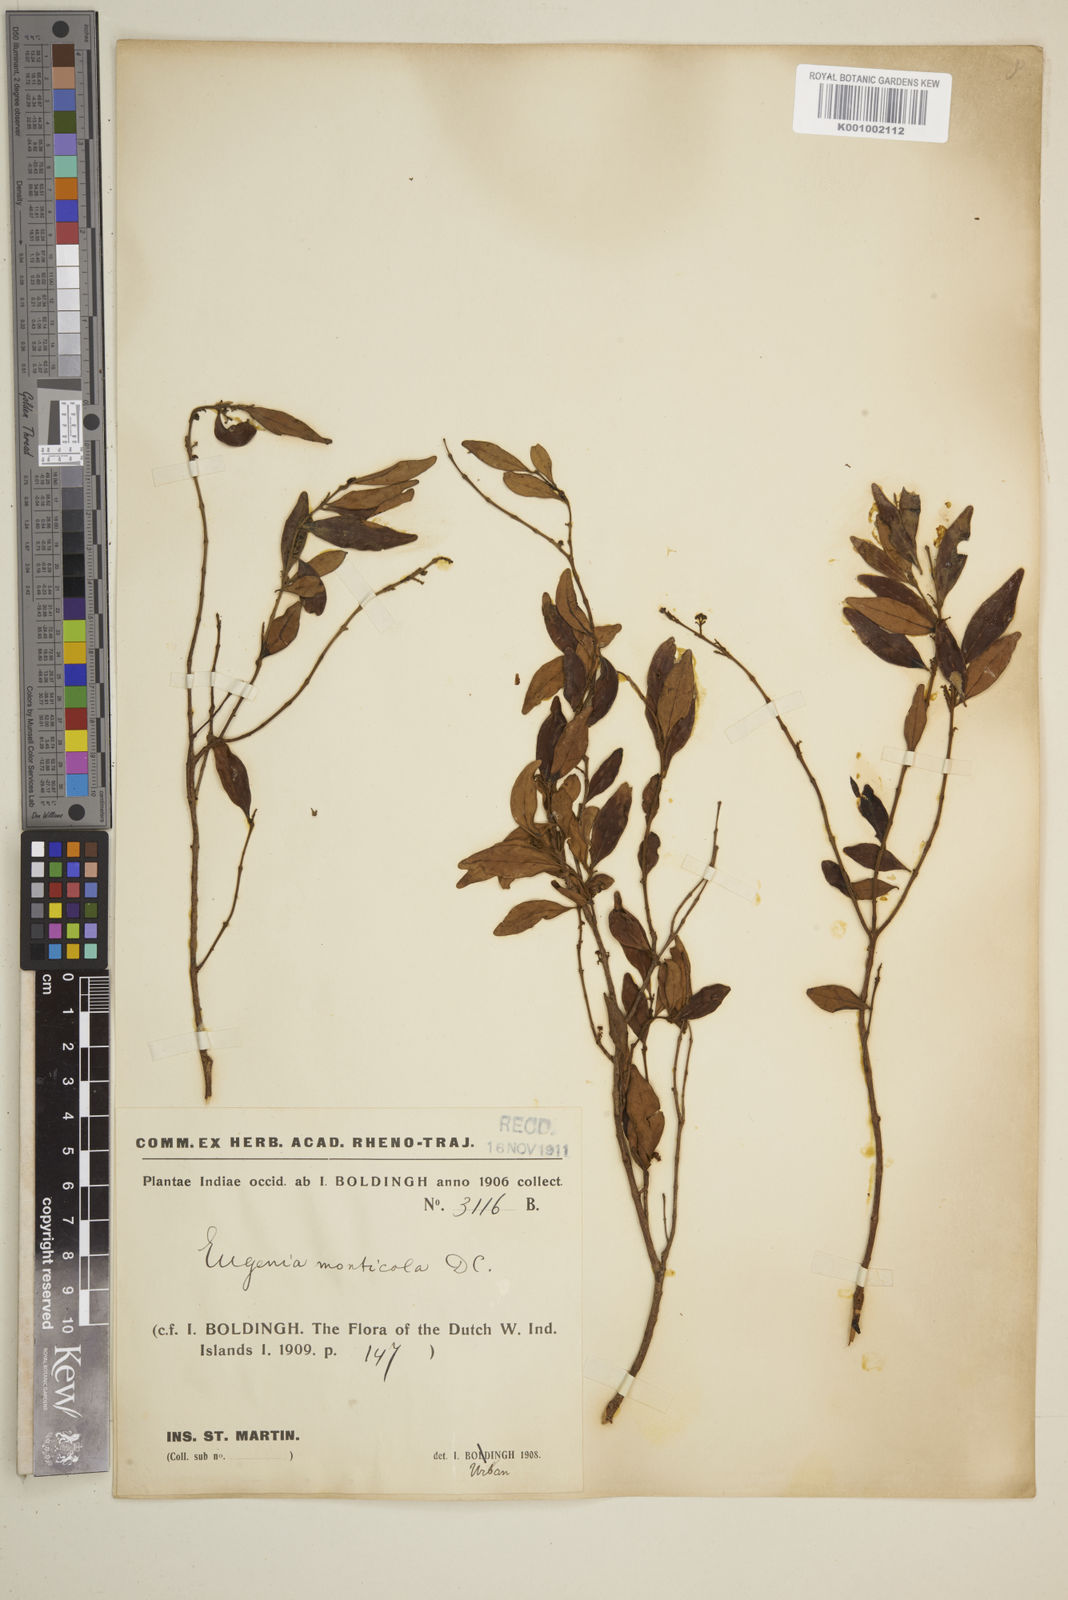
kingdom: Plantae
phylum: Tracheophyta
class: Magnoliopsida
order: Myrtales
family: Myrtaceae
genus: Eugenia
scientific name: Eugenia monticola
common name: Birds berry
